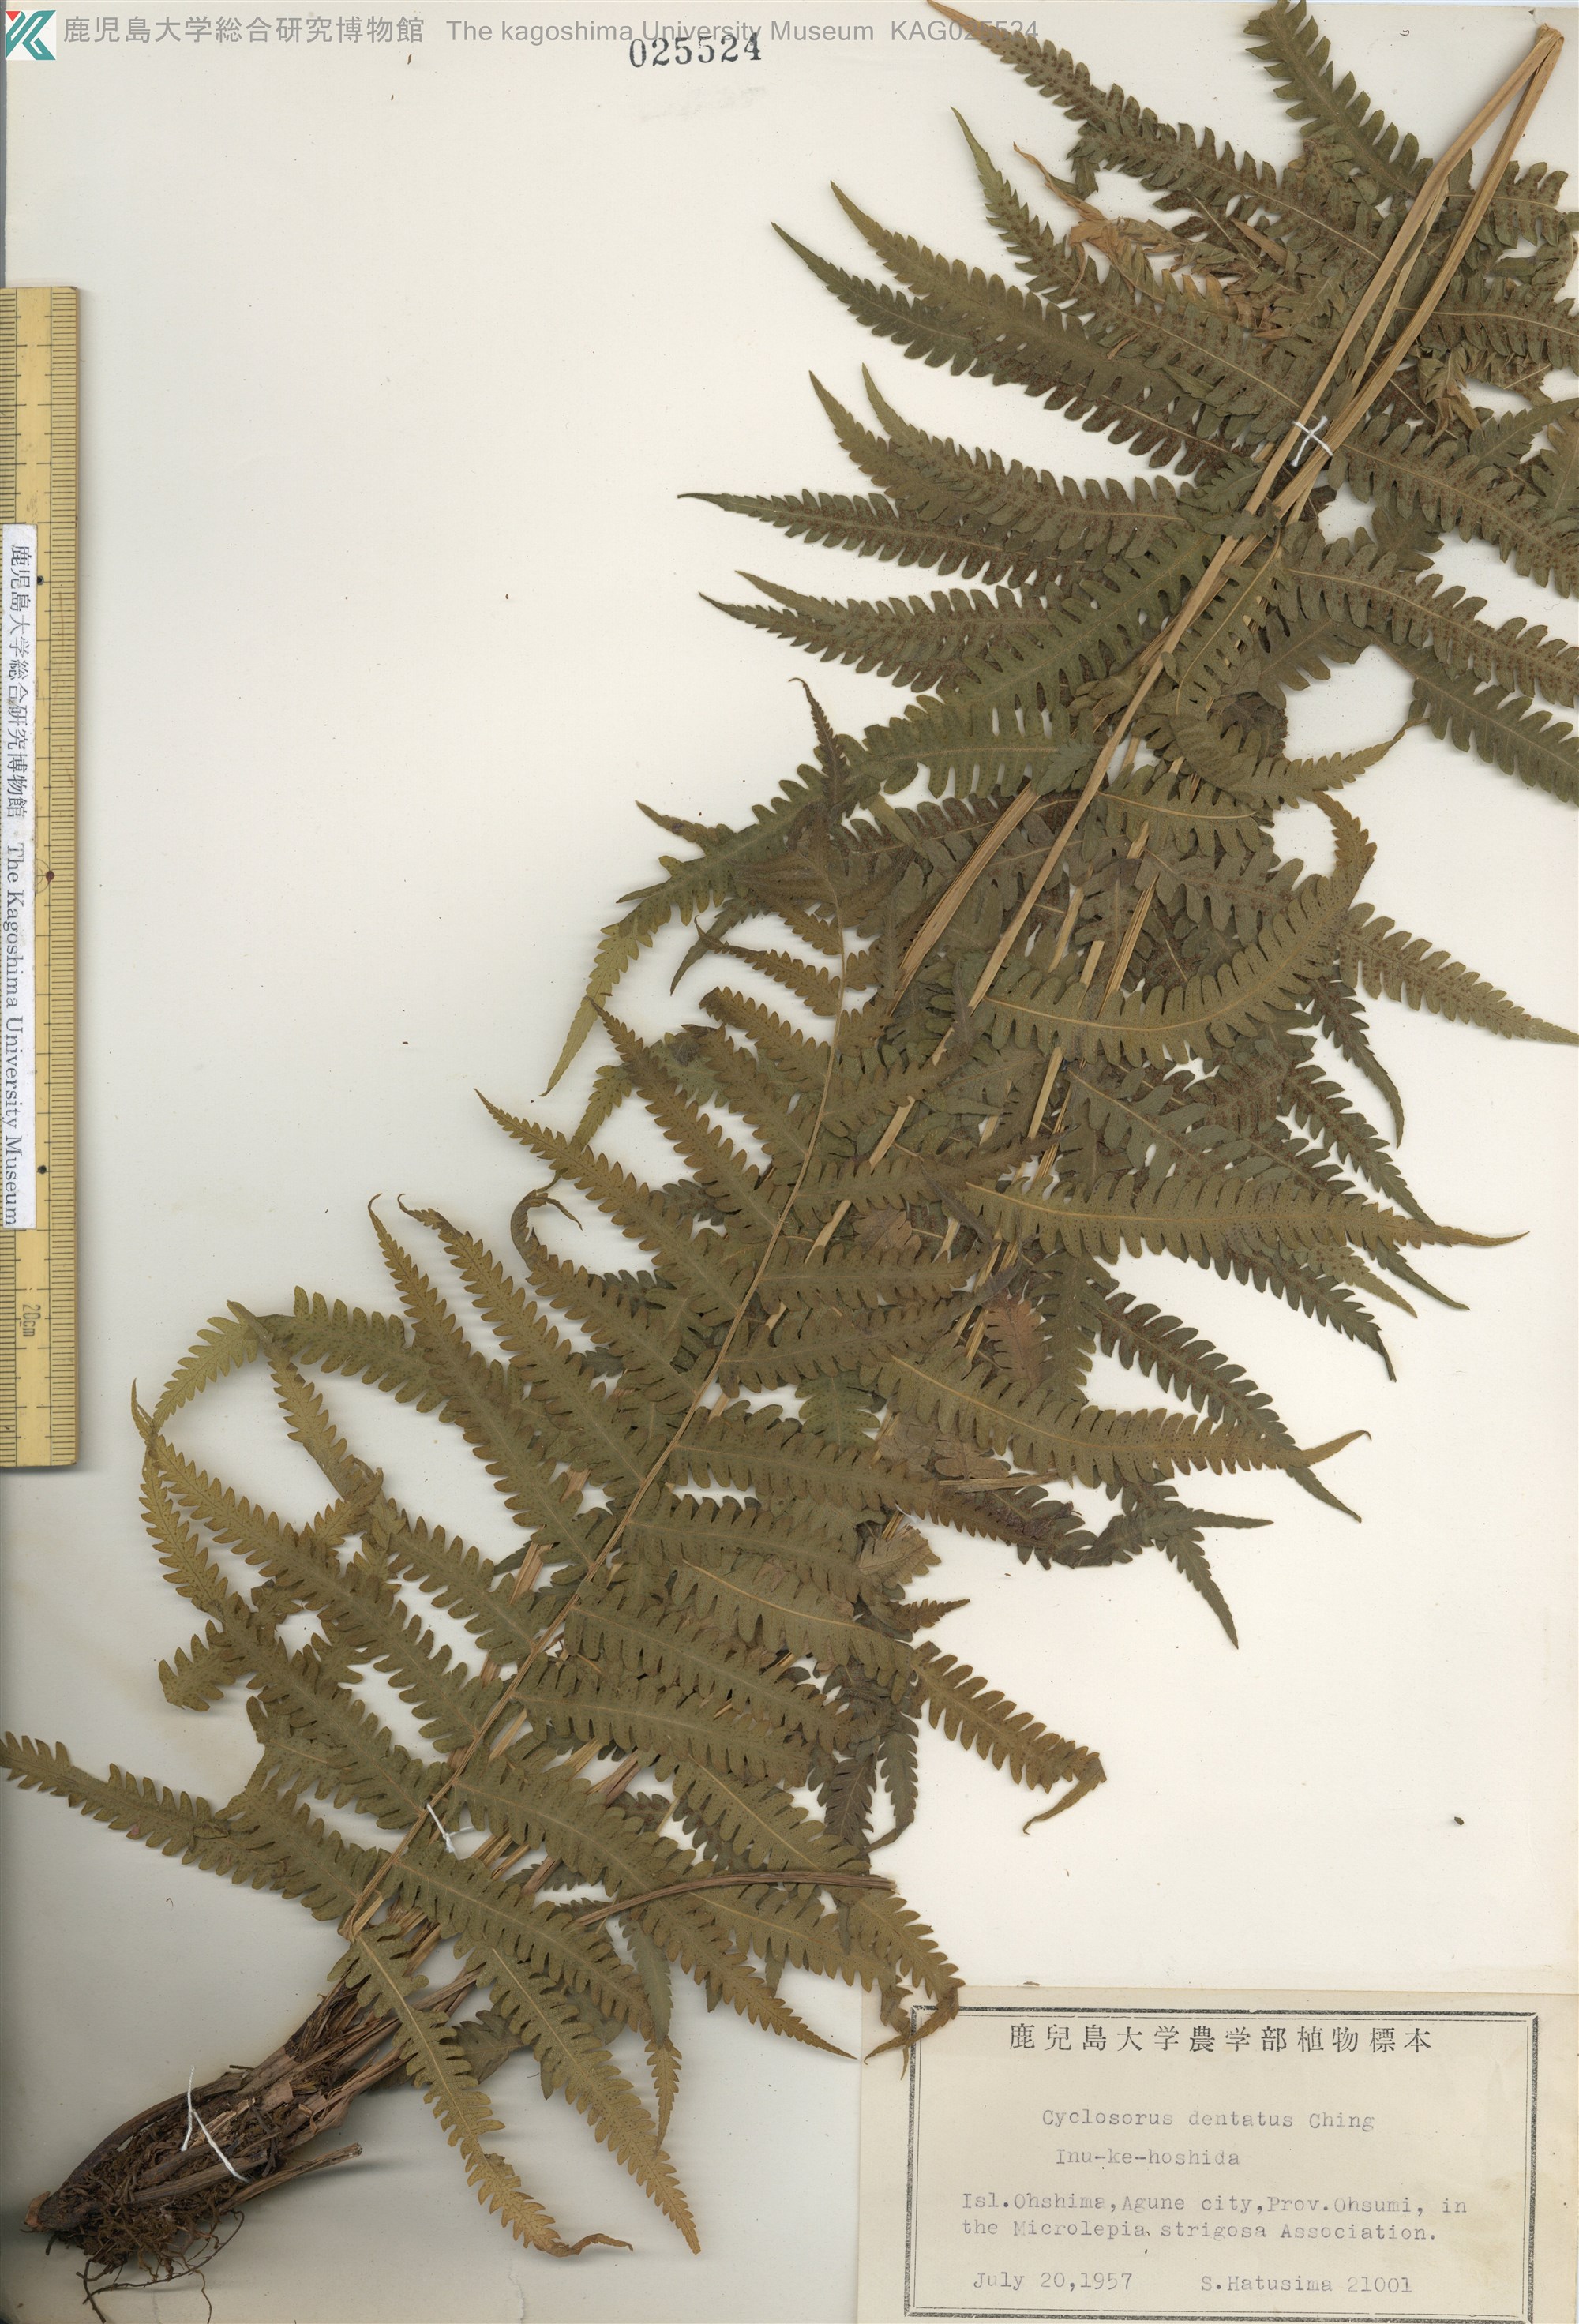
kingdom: Plantae
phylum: Tracheophyta
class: Polypodiopsida
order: Polypodiales
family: Thelypteridaceae
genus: Christella
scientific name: Christella dentata
